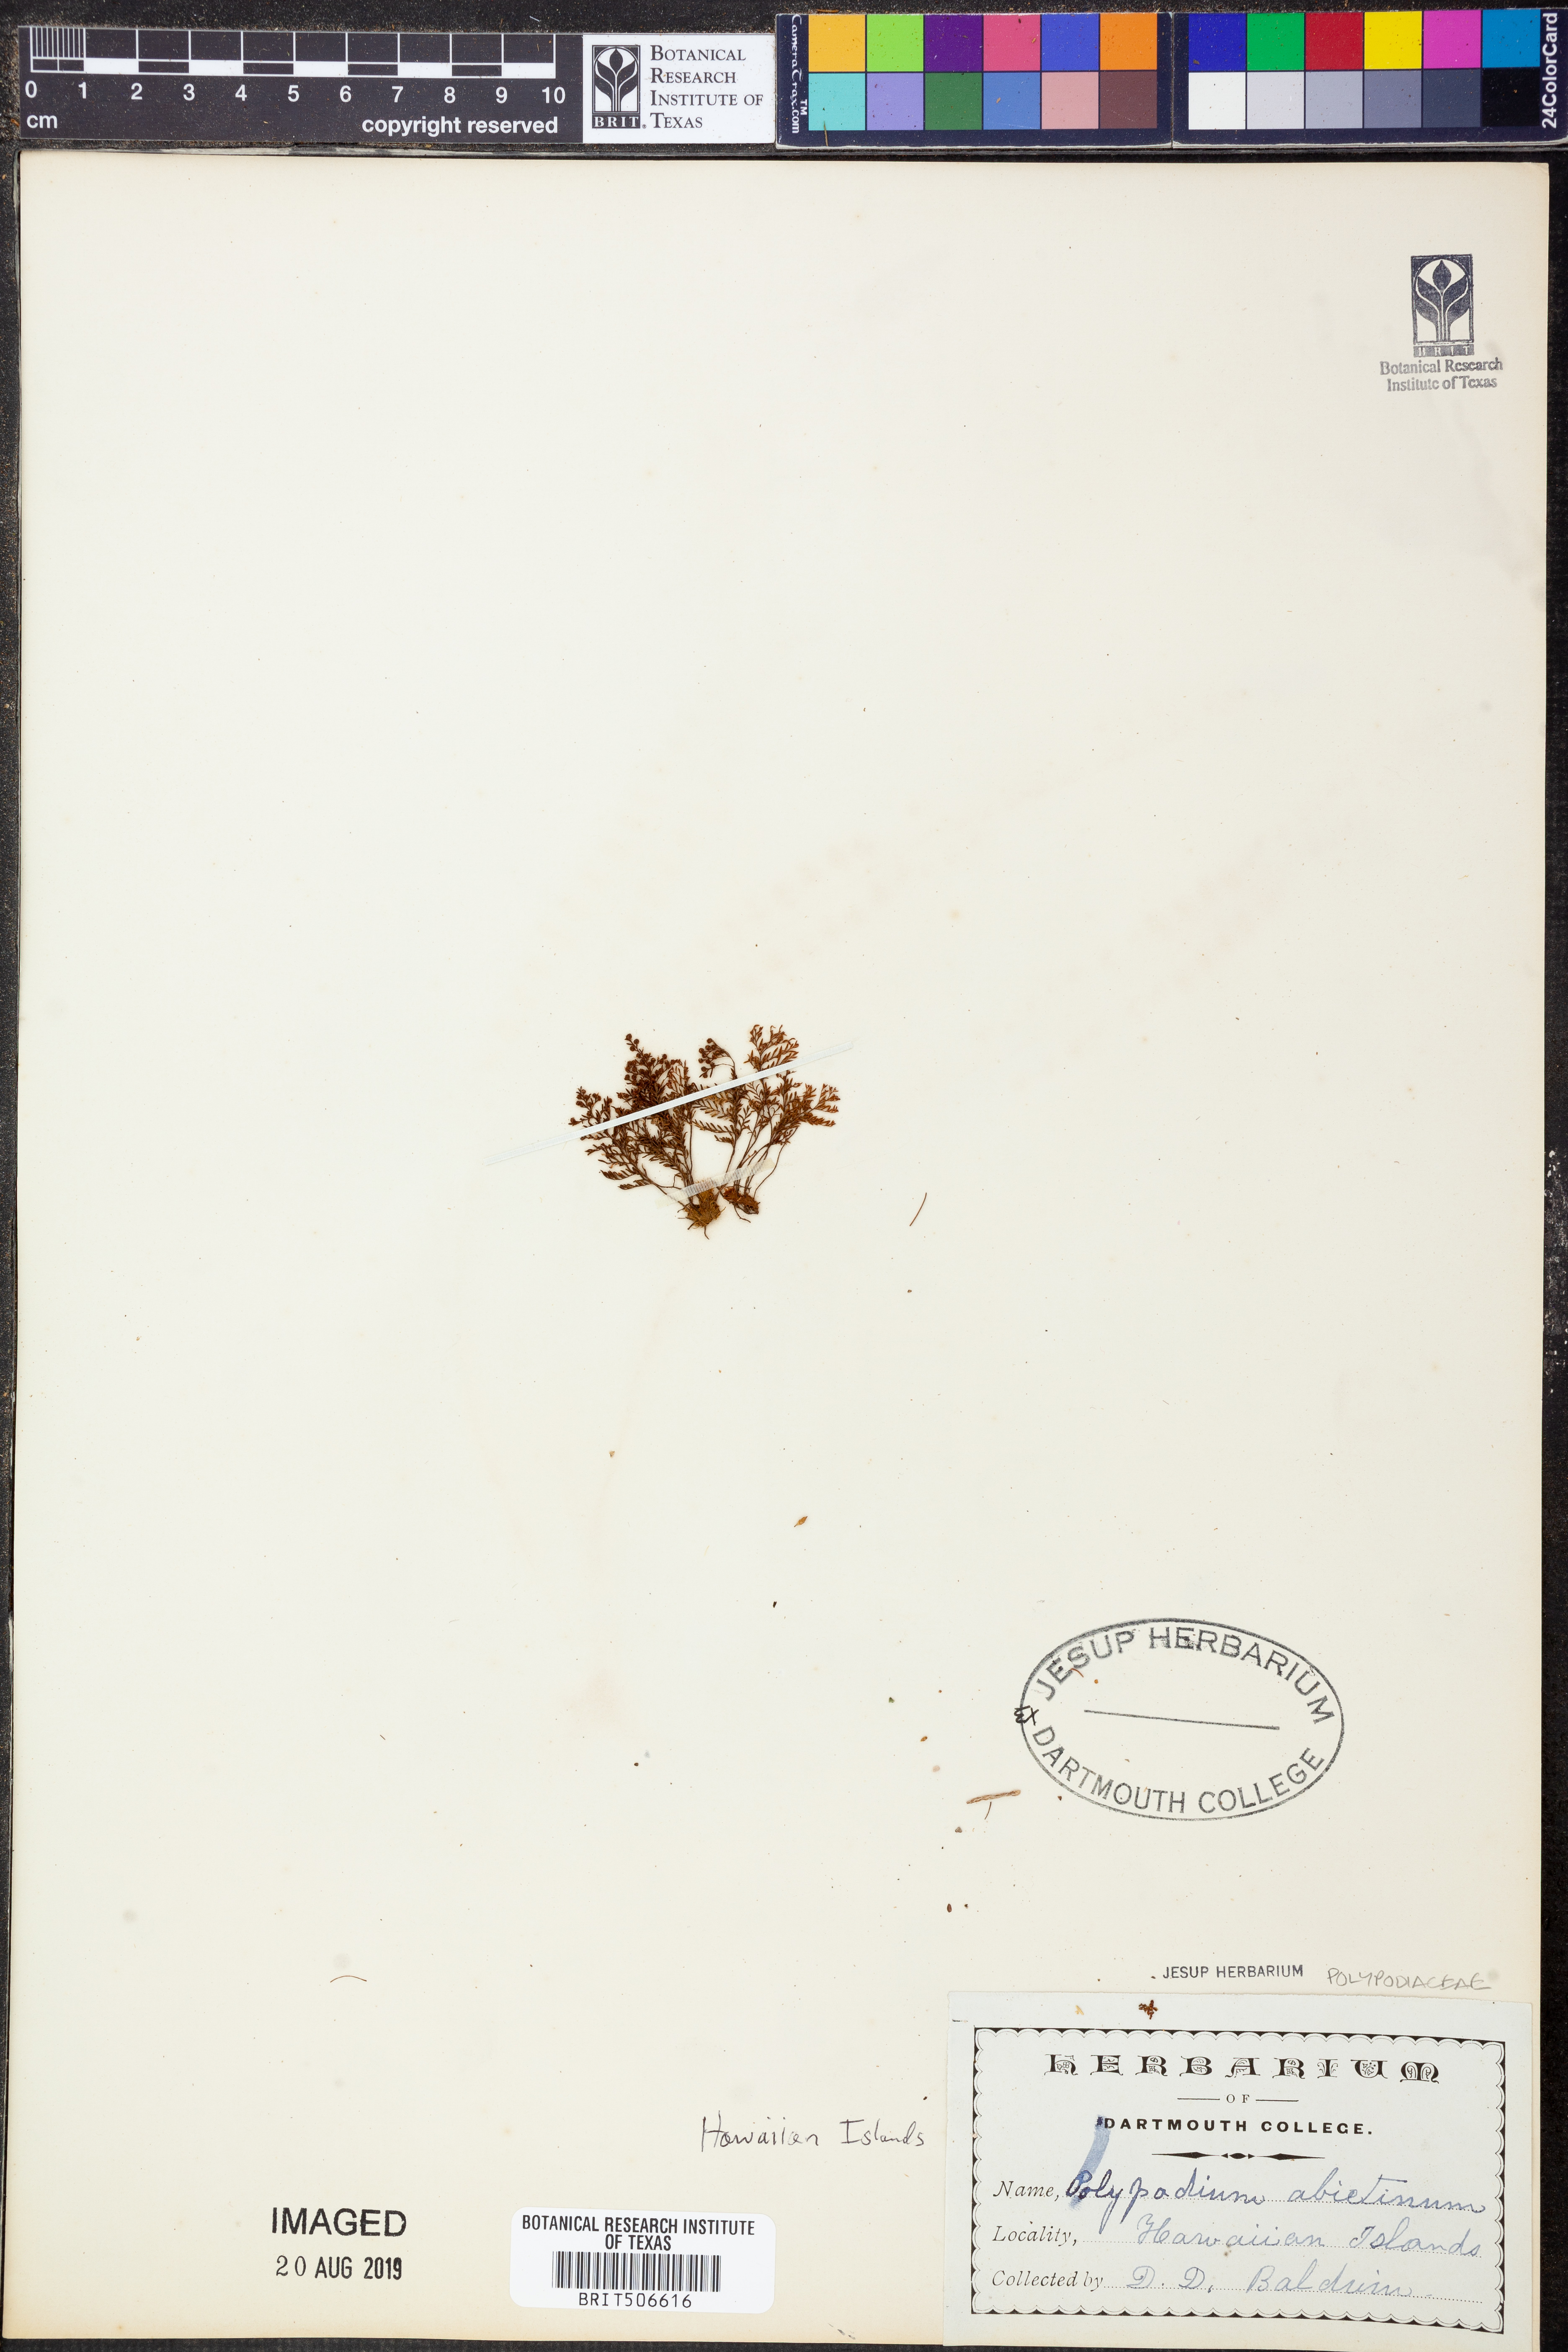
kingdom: Plantae
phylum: Tracheophyta
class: Polypodiopsida
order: Polypodiales
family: Polypodiaceae
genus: Adenophorus
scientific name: Adenophorus abietinus
